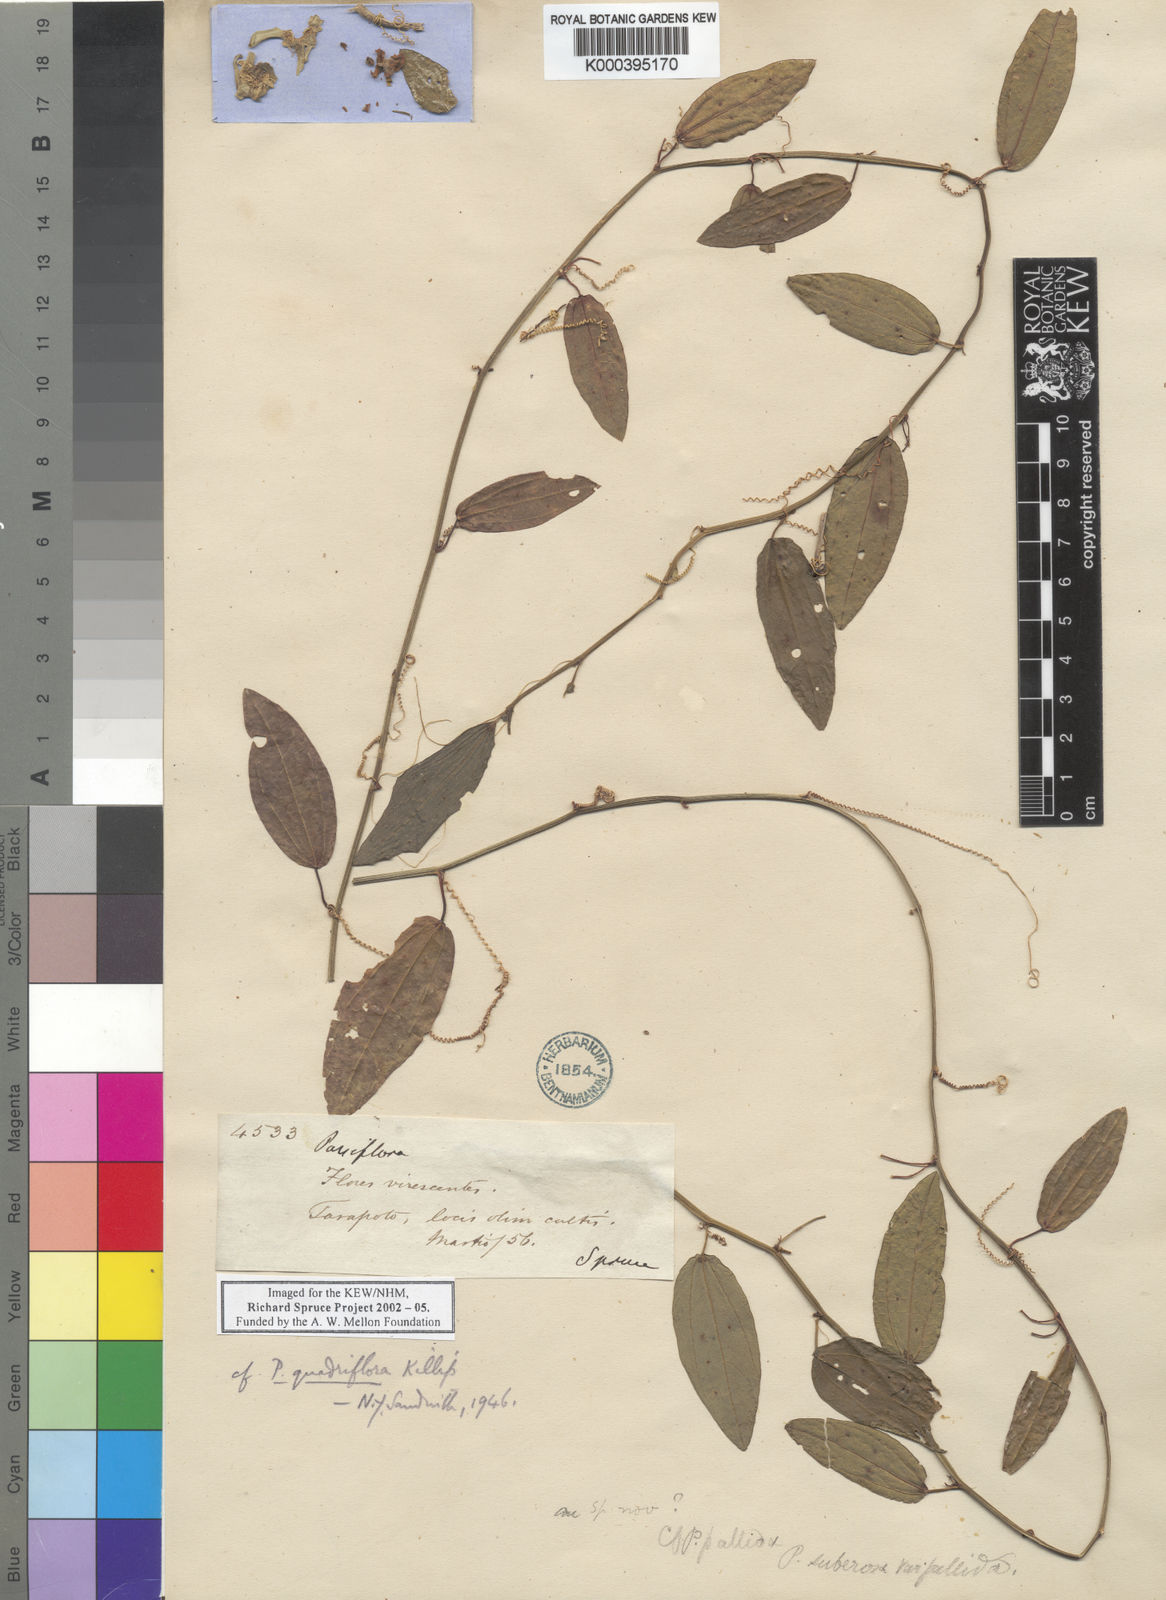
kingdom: Plantae
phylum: Tracheophyta
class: Magnoliopsida
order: Malpighiales
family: Passifloraceae
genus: Passiflora
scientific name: Passiflora quadriflora
